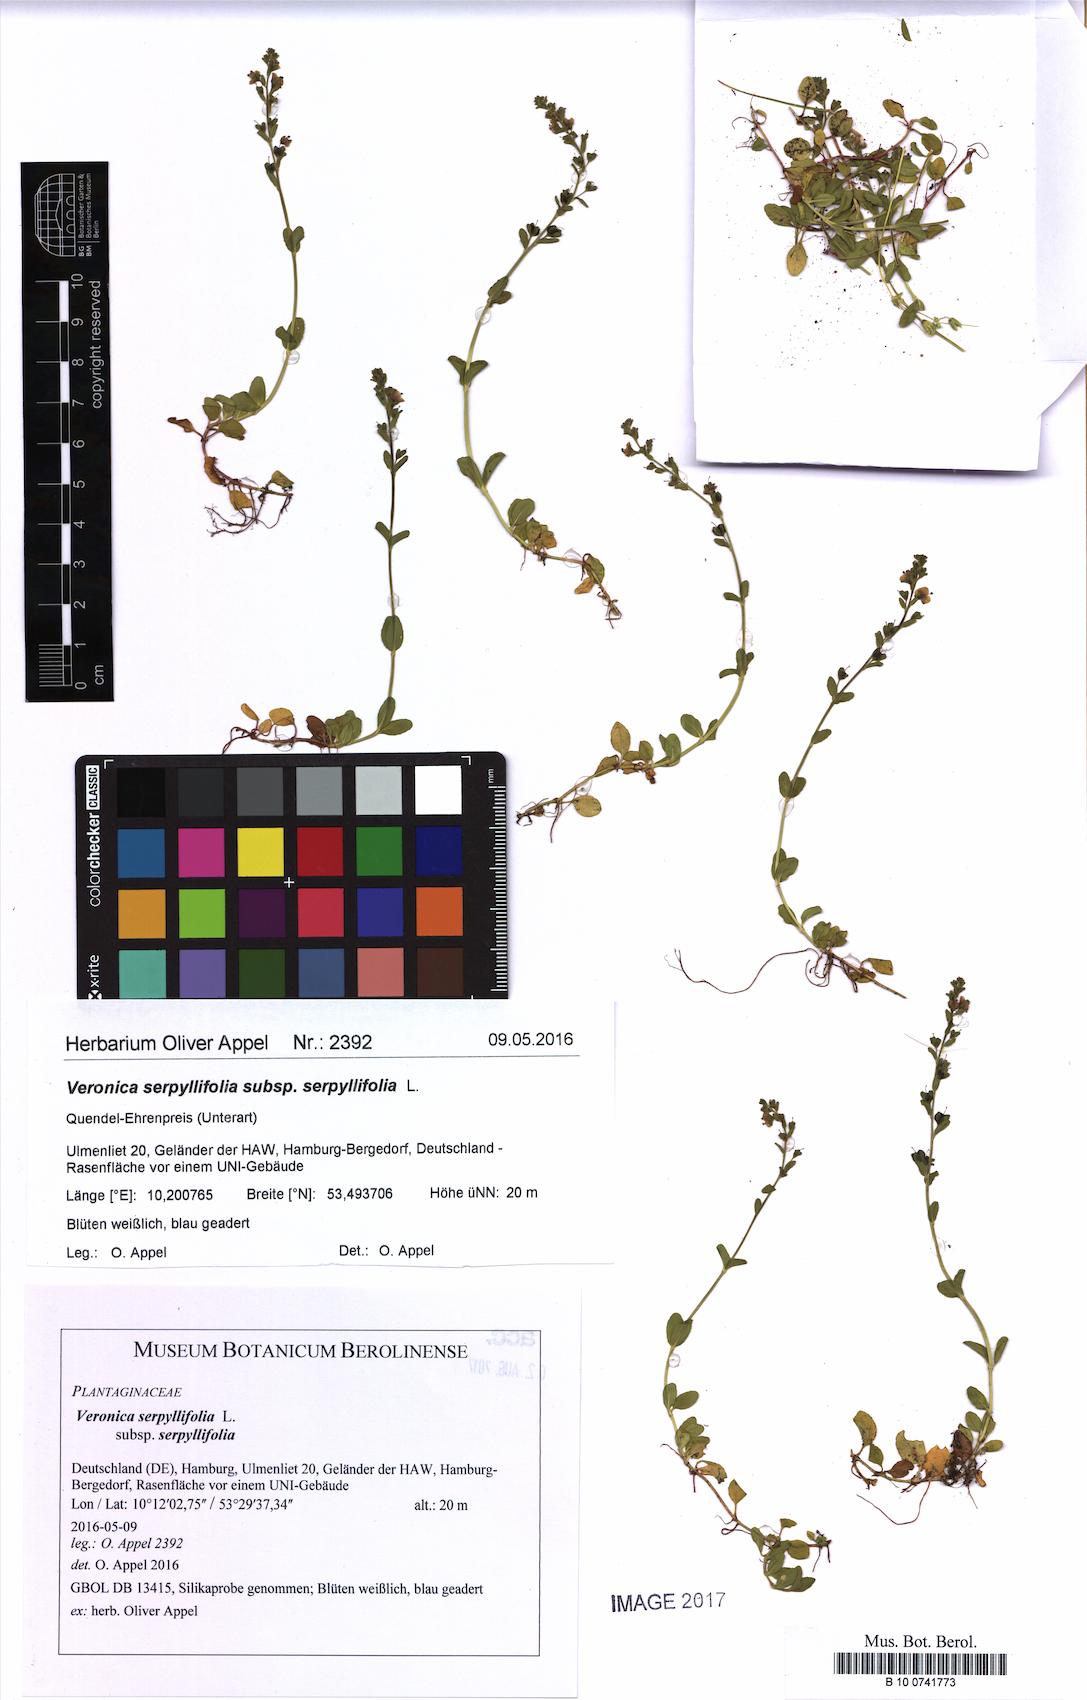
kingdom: Plantae
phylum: Tracheophyta
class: Magnoliopsida
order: Lamiales
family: Plantaginaceae
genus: Veronica
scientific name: Veronica serpyllifolia
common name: Thyme-leaved speedwell
